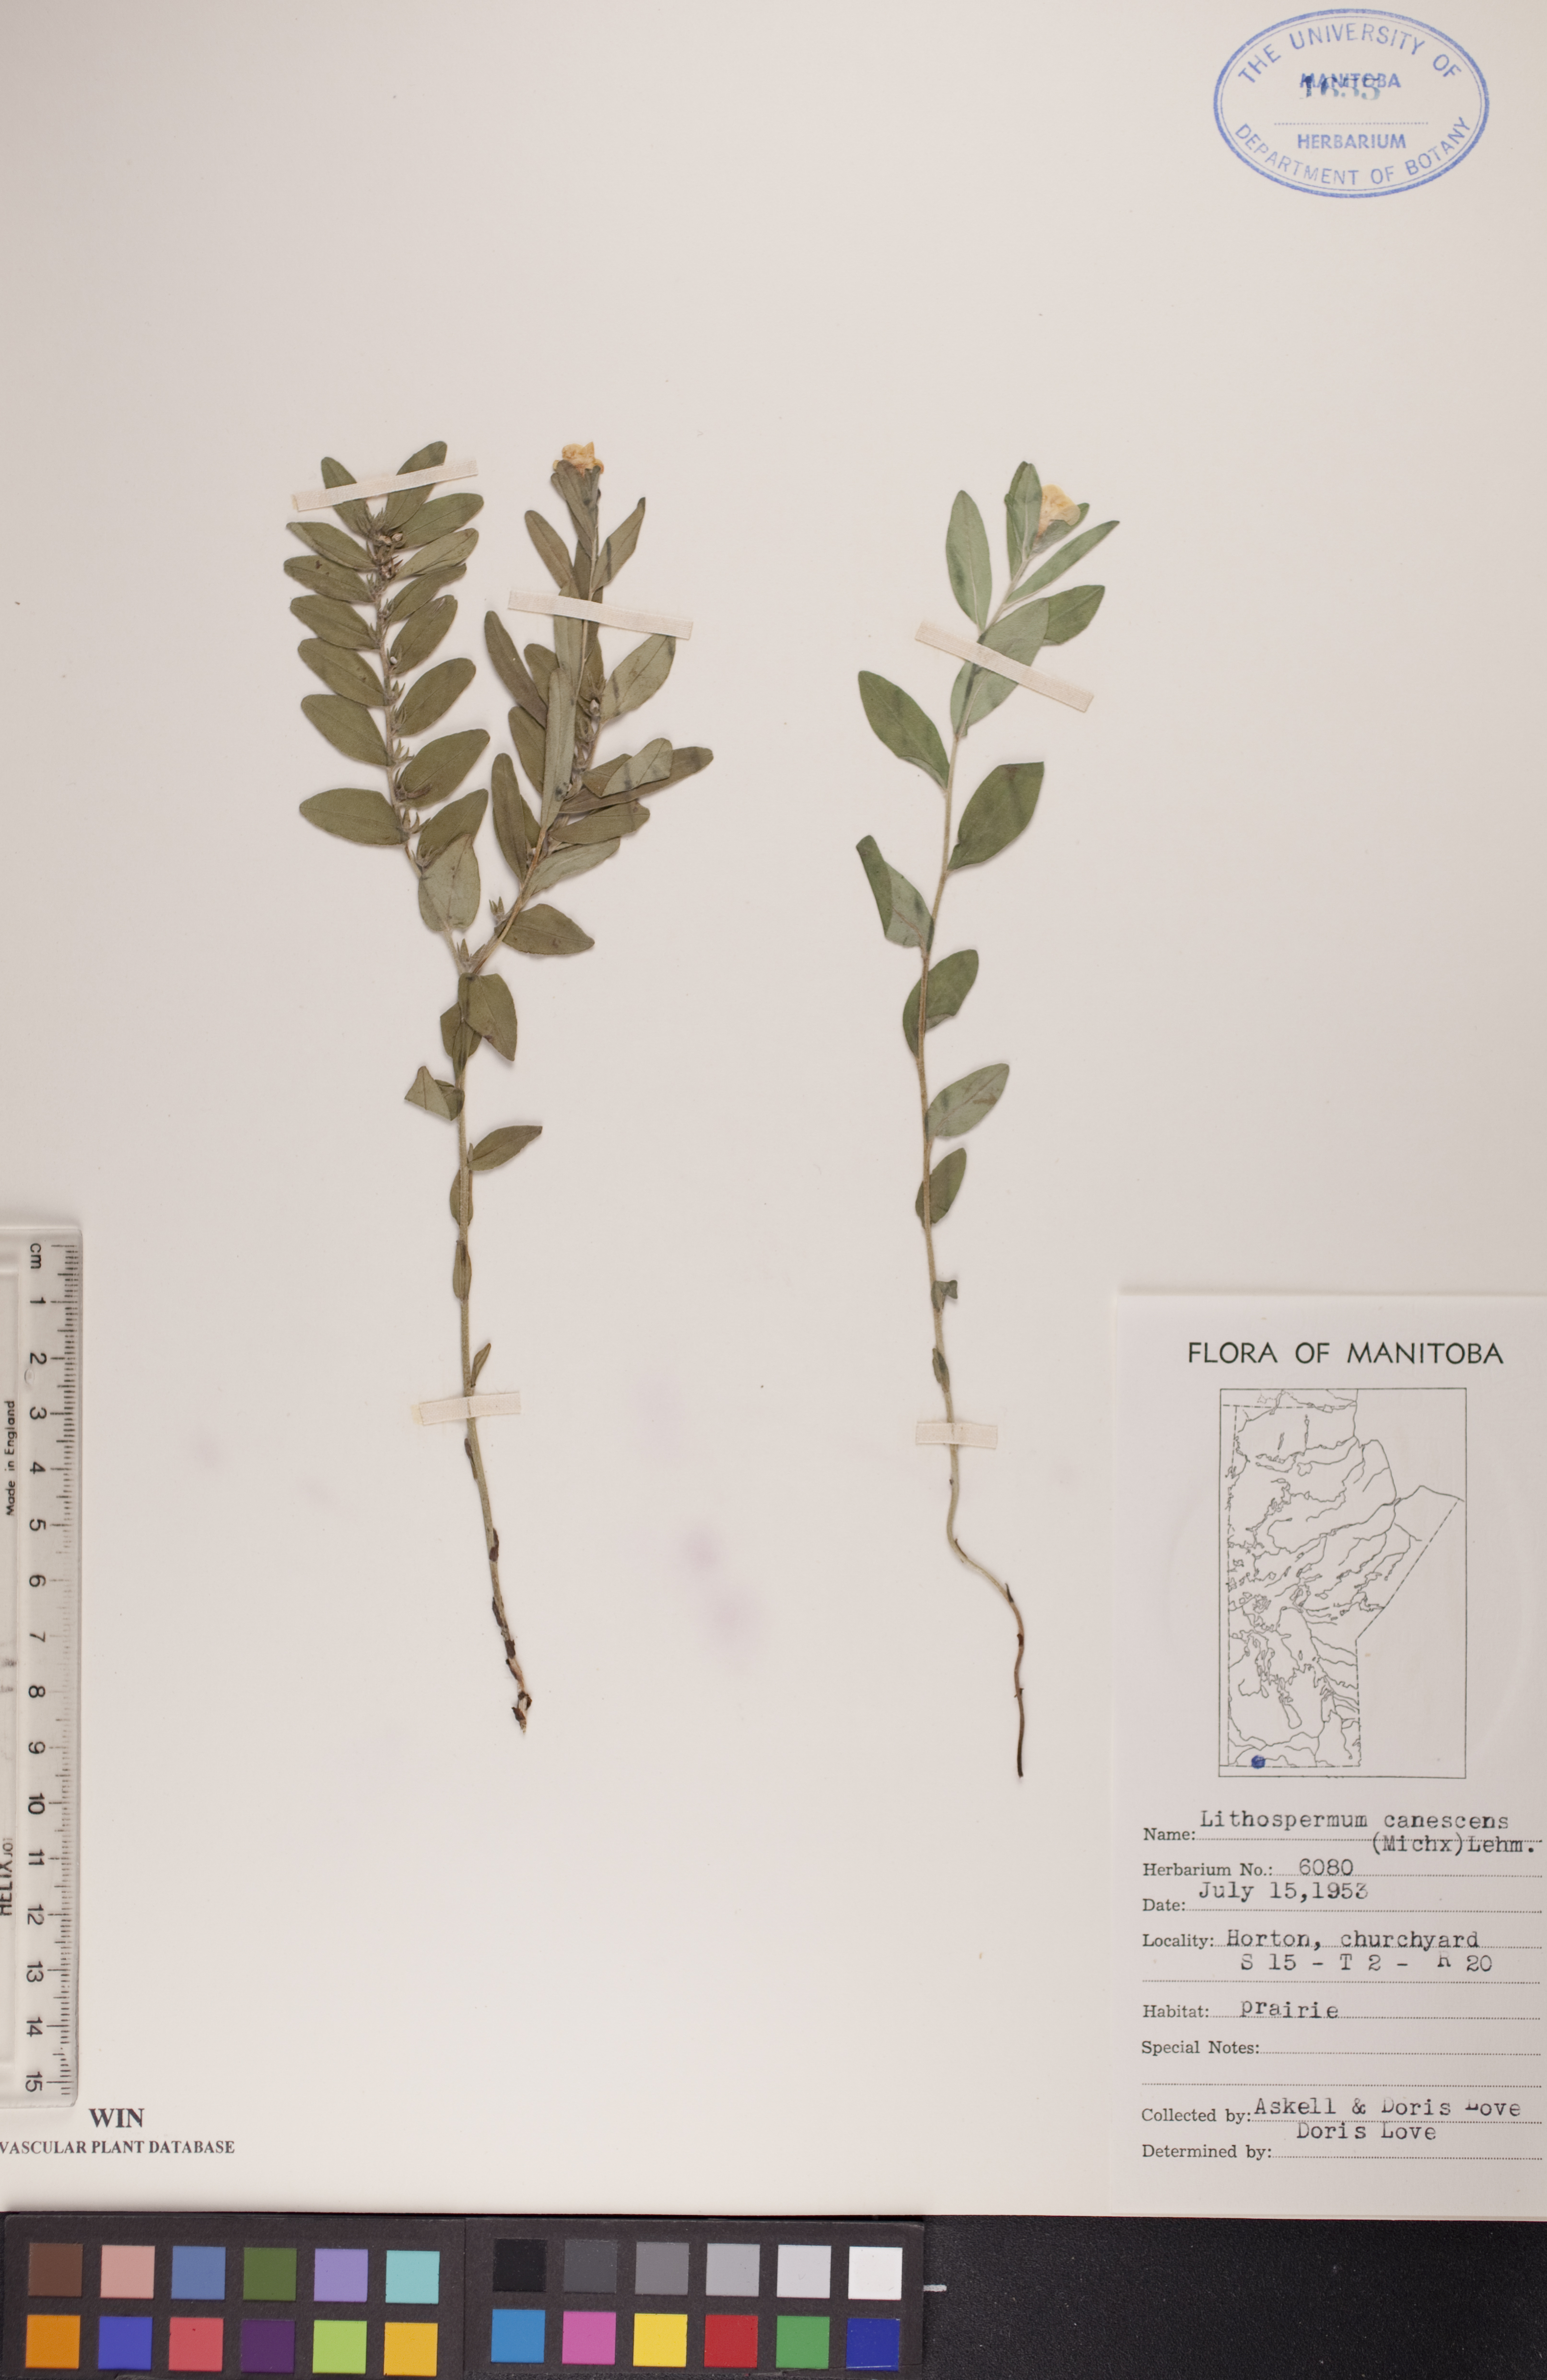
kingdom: Plantae
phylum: Tracheophyta
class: Magnoliopsida
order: Boraginales
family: Boraginaceae
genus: Lithospermum
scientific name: Lithospermum canescens
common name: Hoary puccoon
